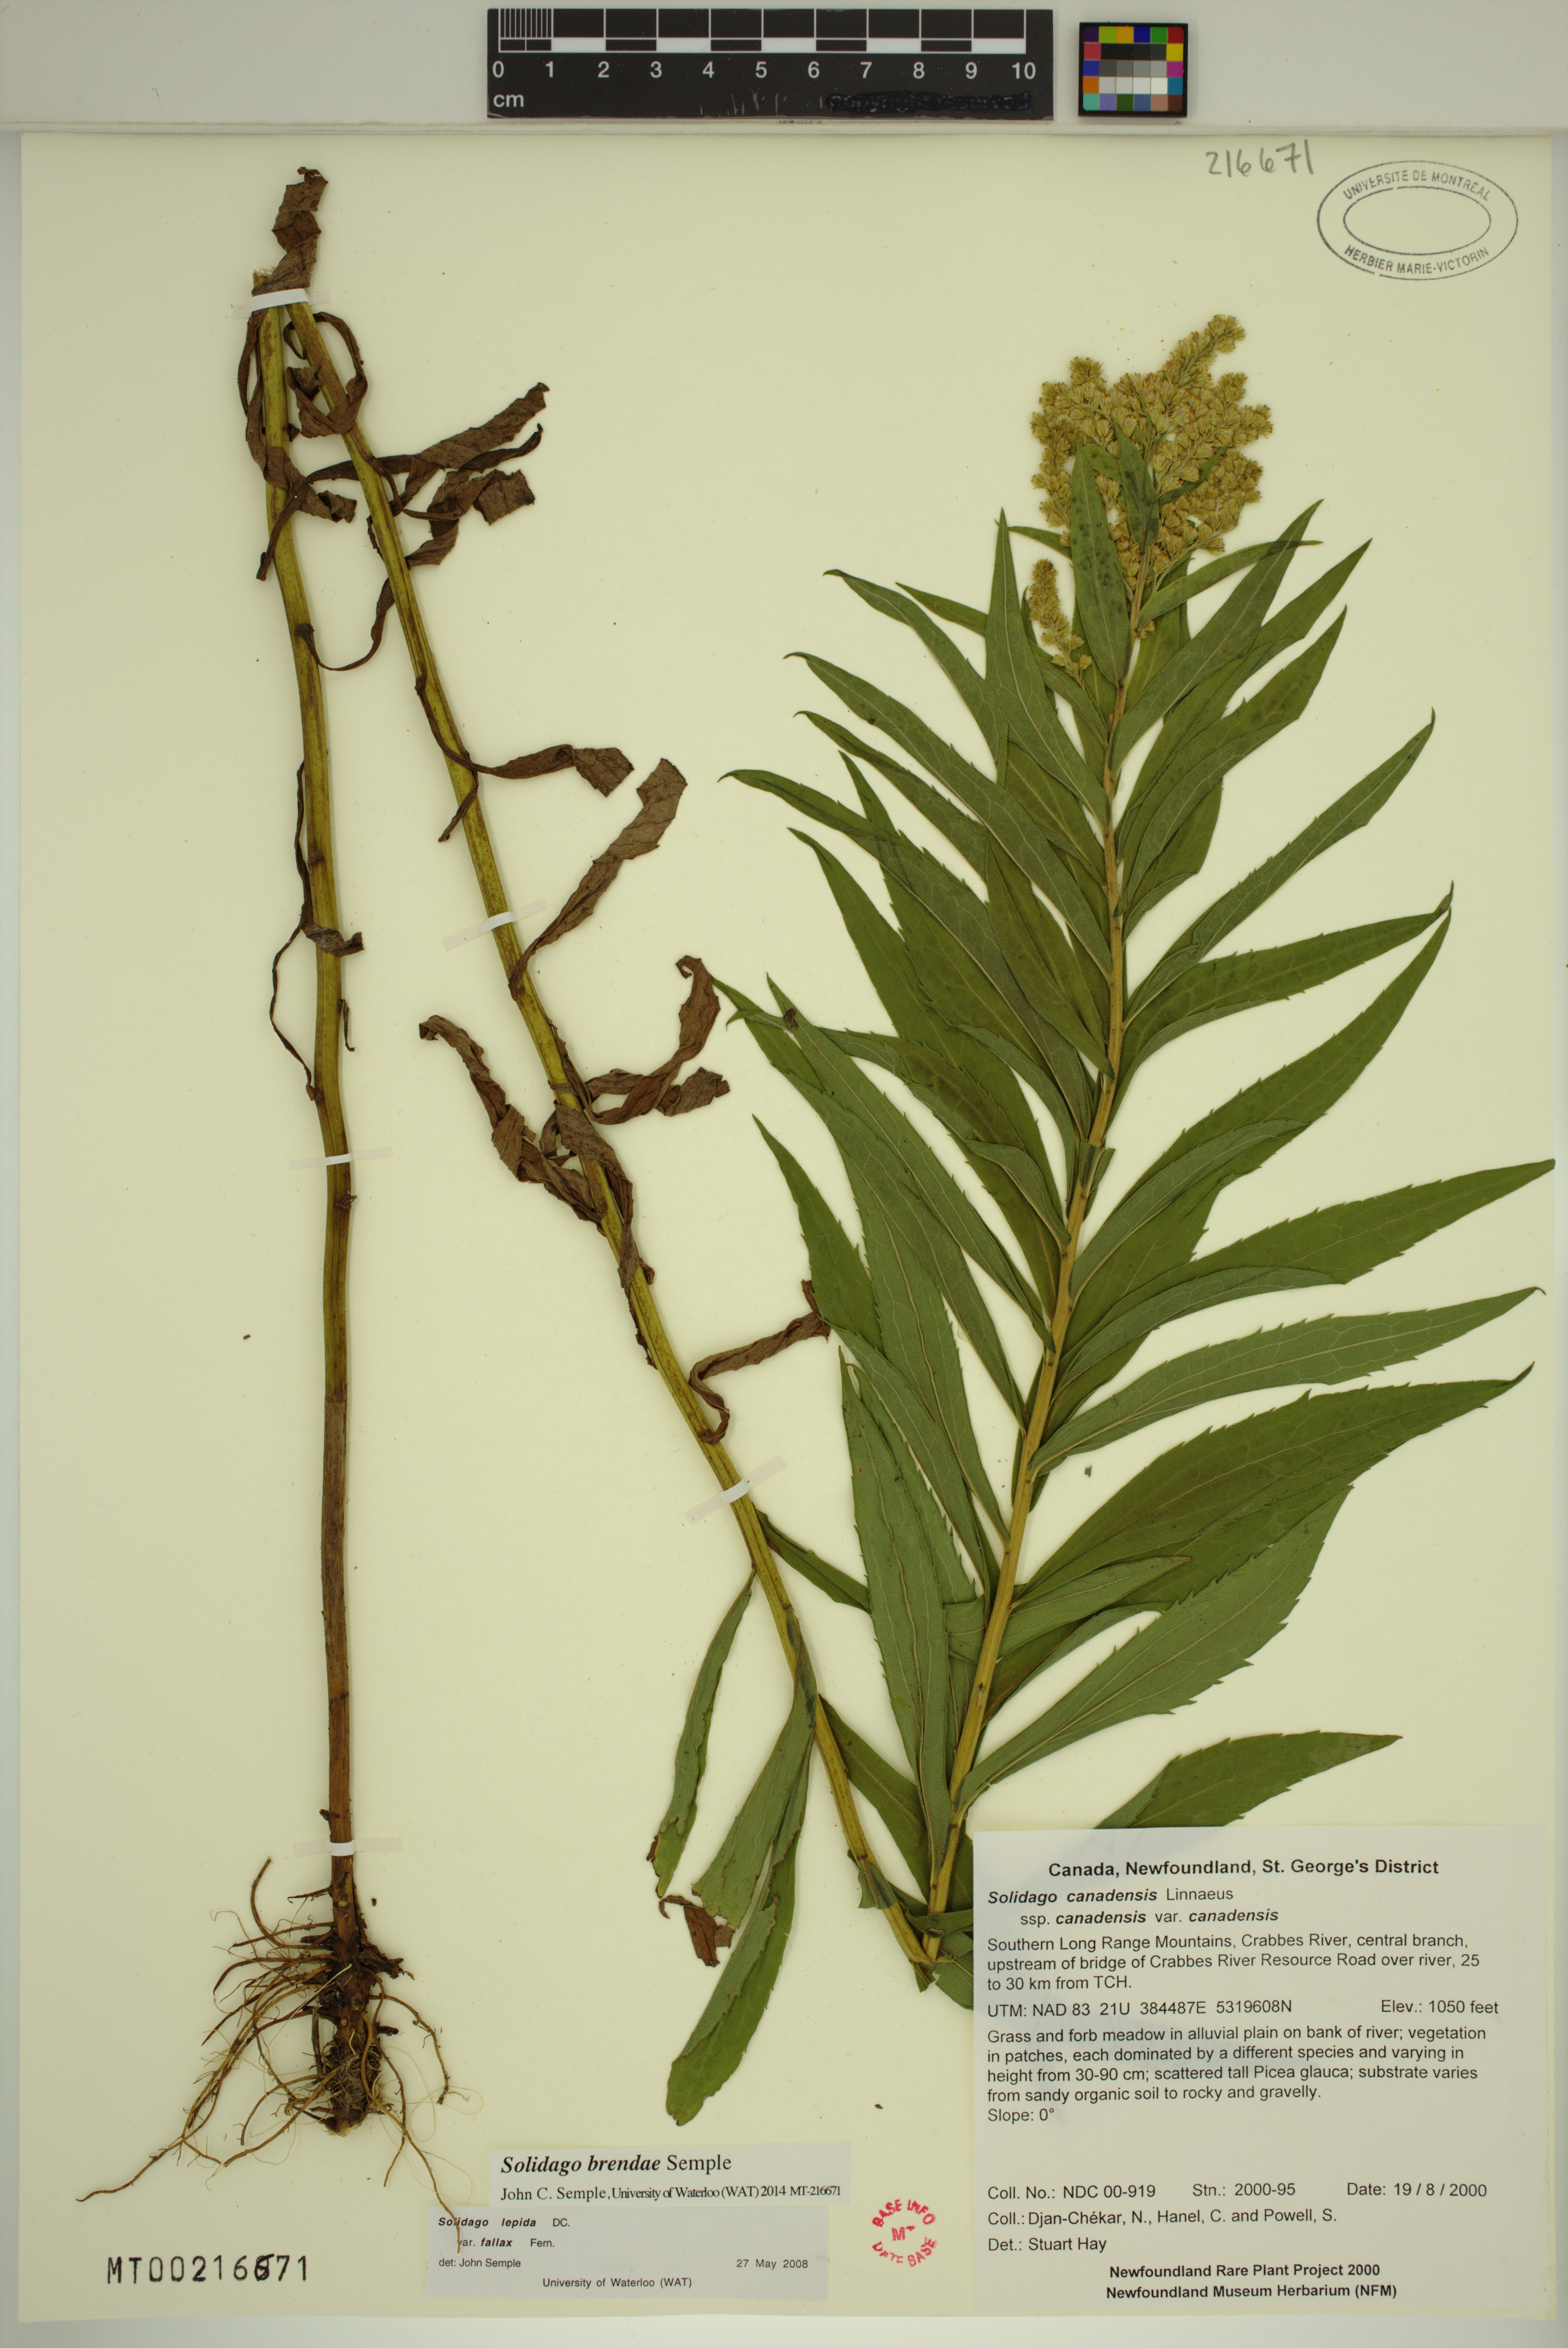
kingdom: Plantae
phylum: Tracheophyta
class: Magnoliopsida
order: Asterales
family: Asteraceae
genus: Solidago
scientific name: Solidago brendae
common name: Brenda's goldenrod
